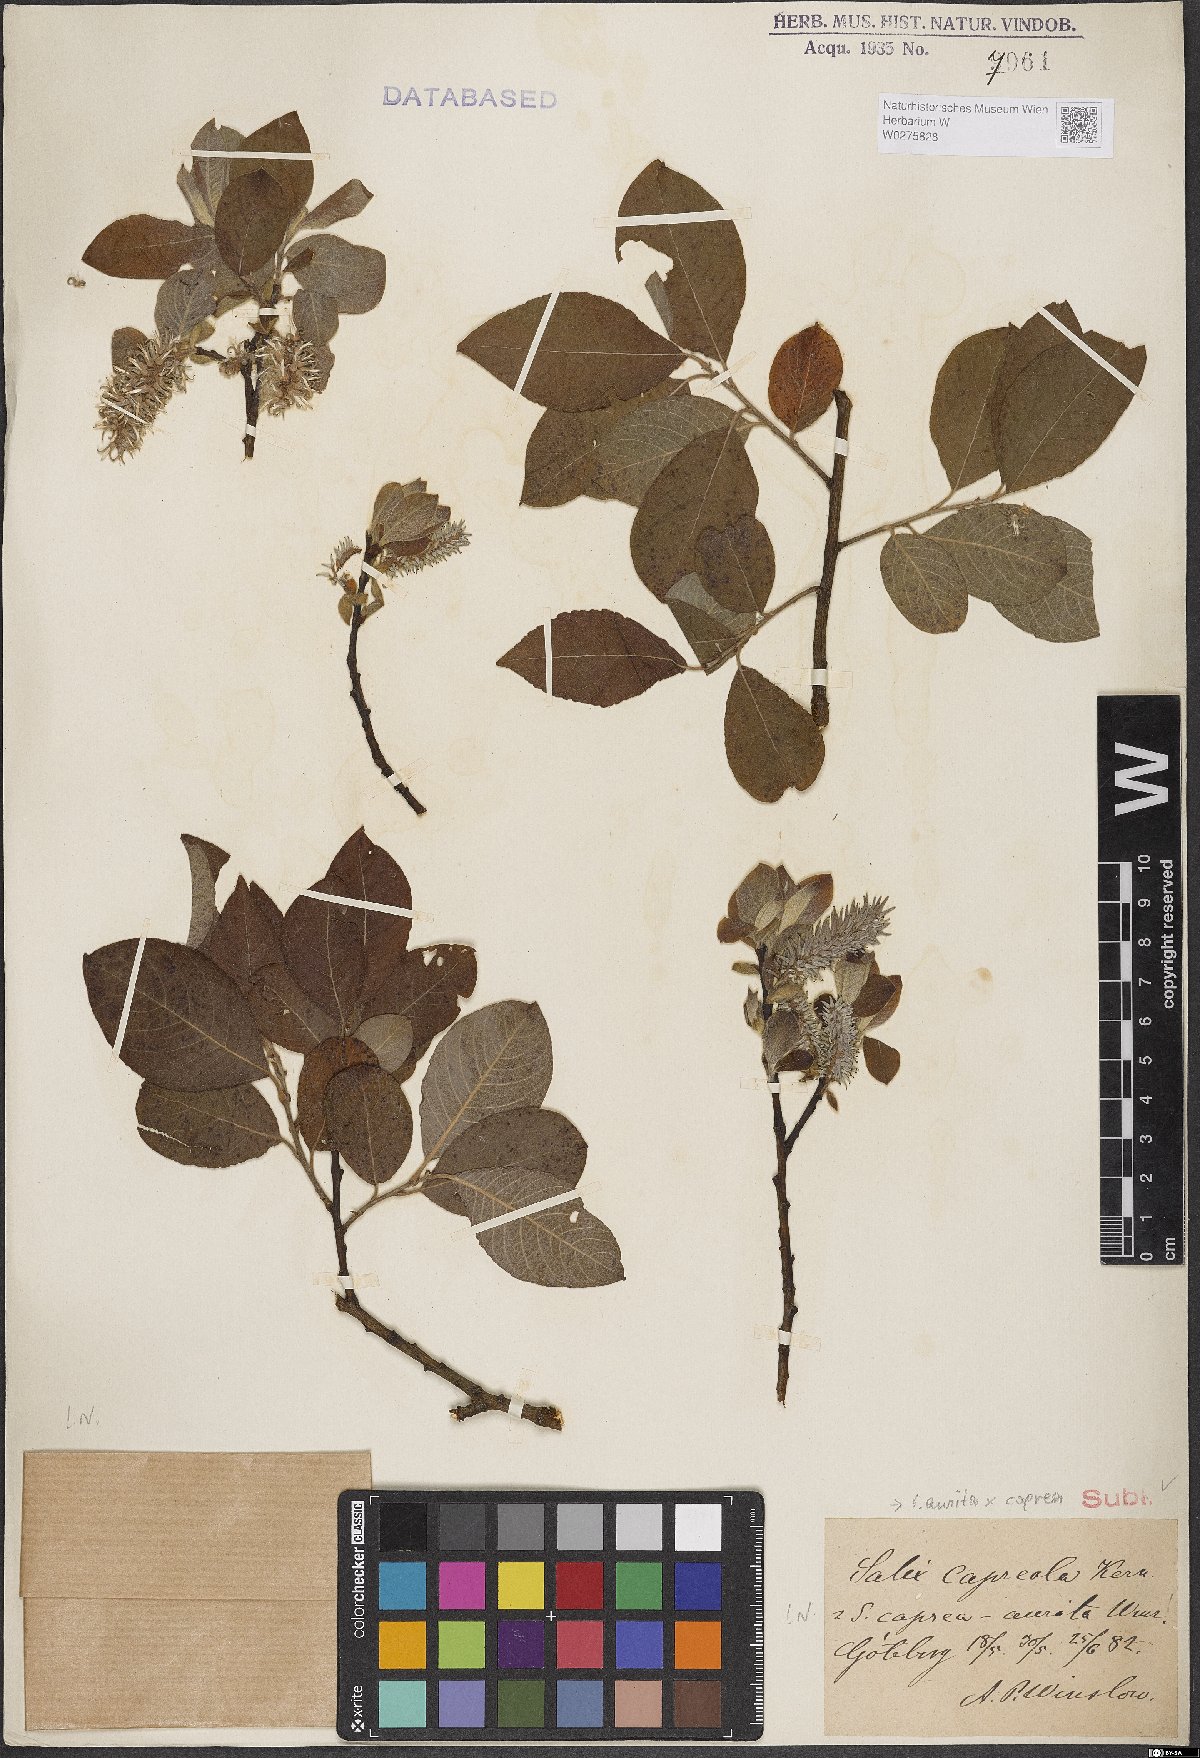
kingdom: Plantae
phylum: Tracheophyta
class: Magnoliopsida
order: Malpighiales
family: Salicaceae
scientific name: Salicaceae
